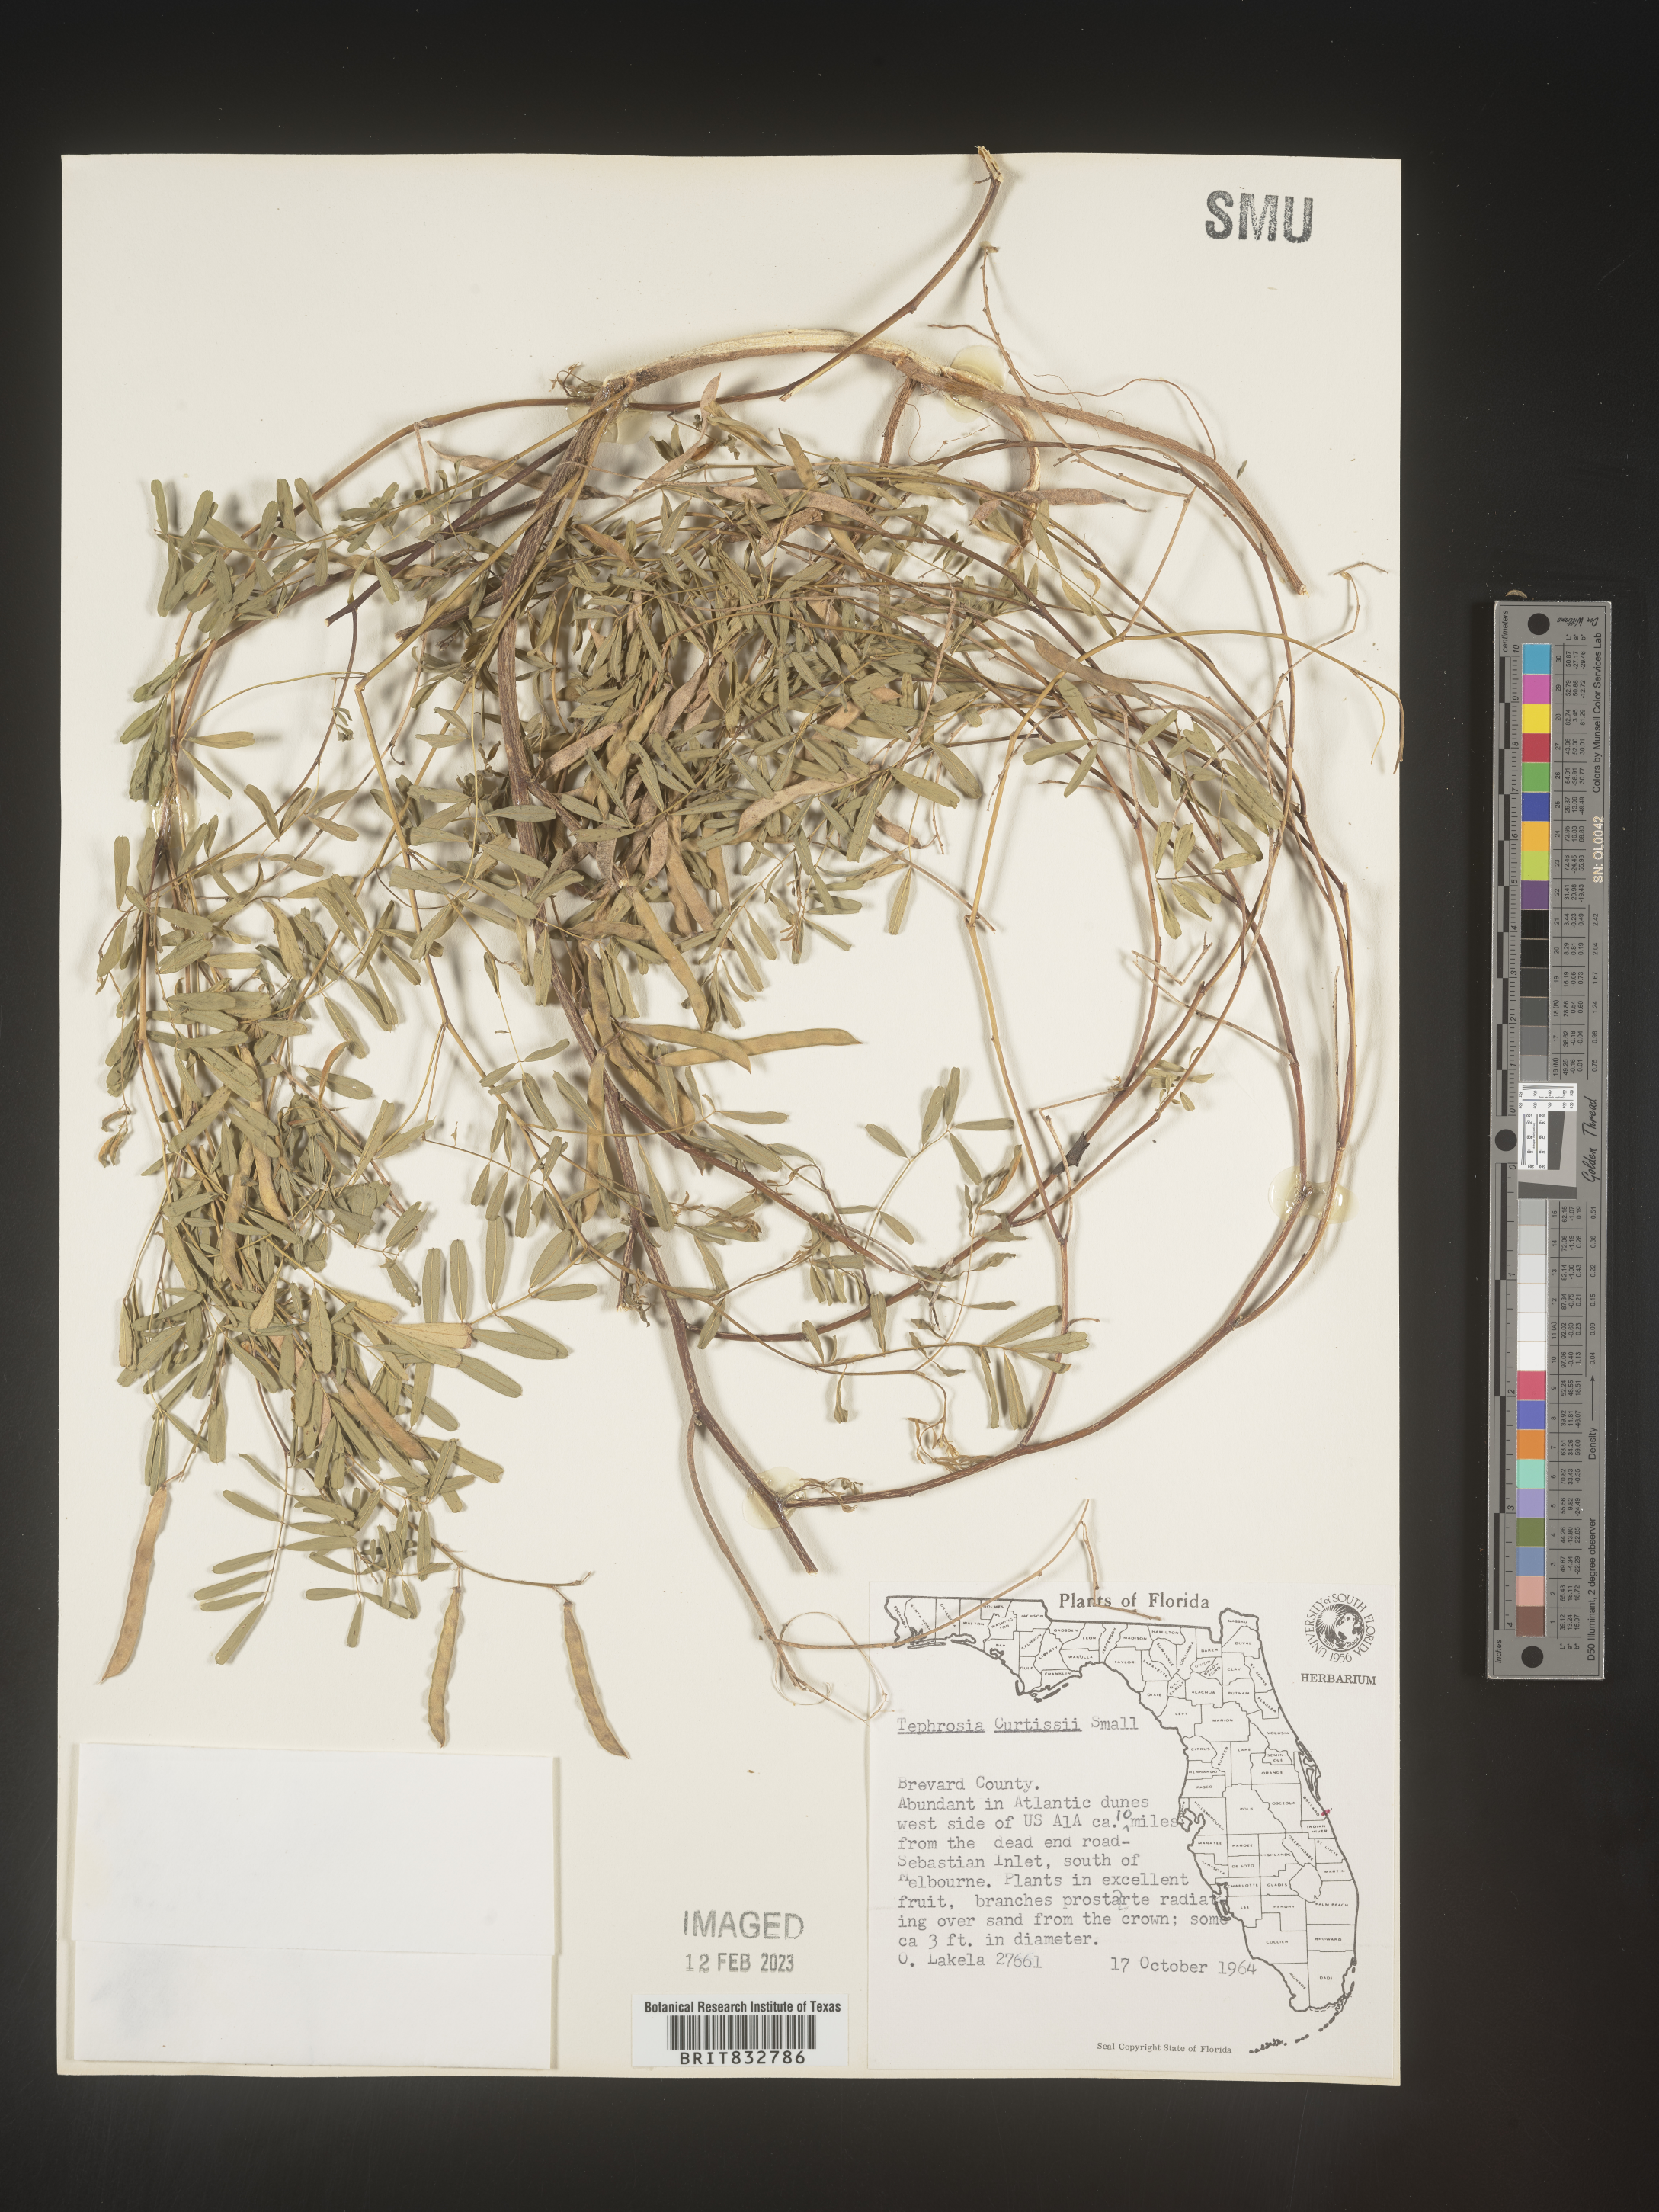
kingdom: Plantae
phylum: Tracheophyta
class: Magnoliopsida
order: Fabales
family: Fabaceae
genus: Tephrosia
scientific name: Tephrosia angustissima
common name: Devil's shoestring
